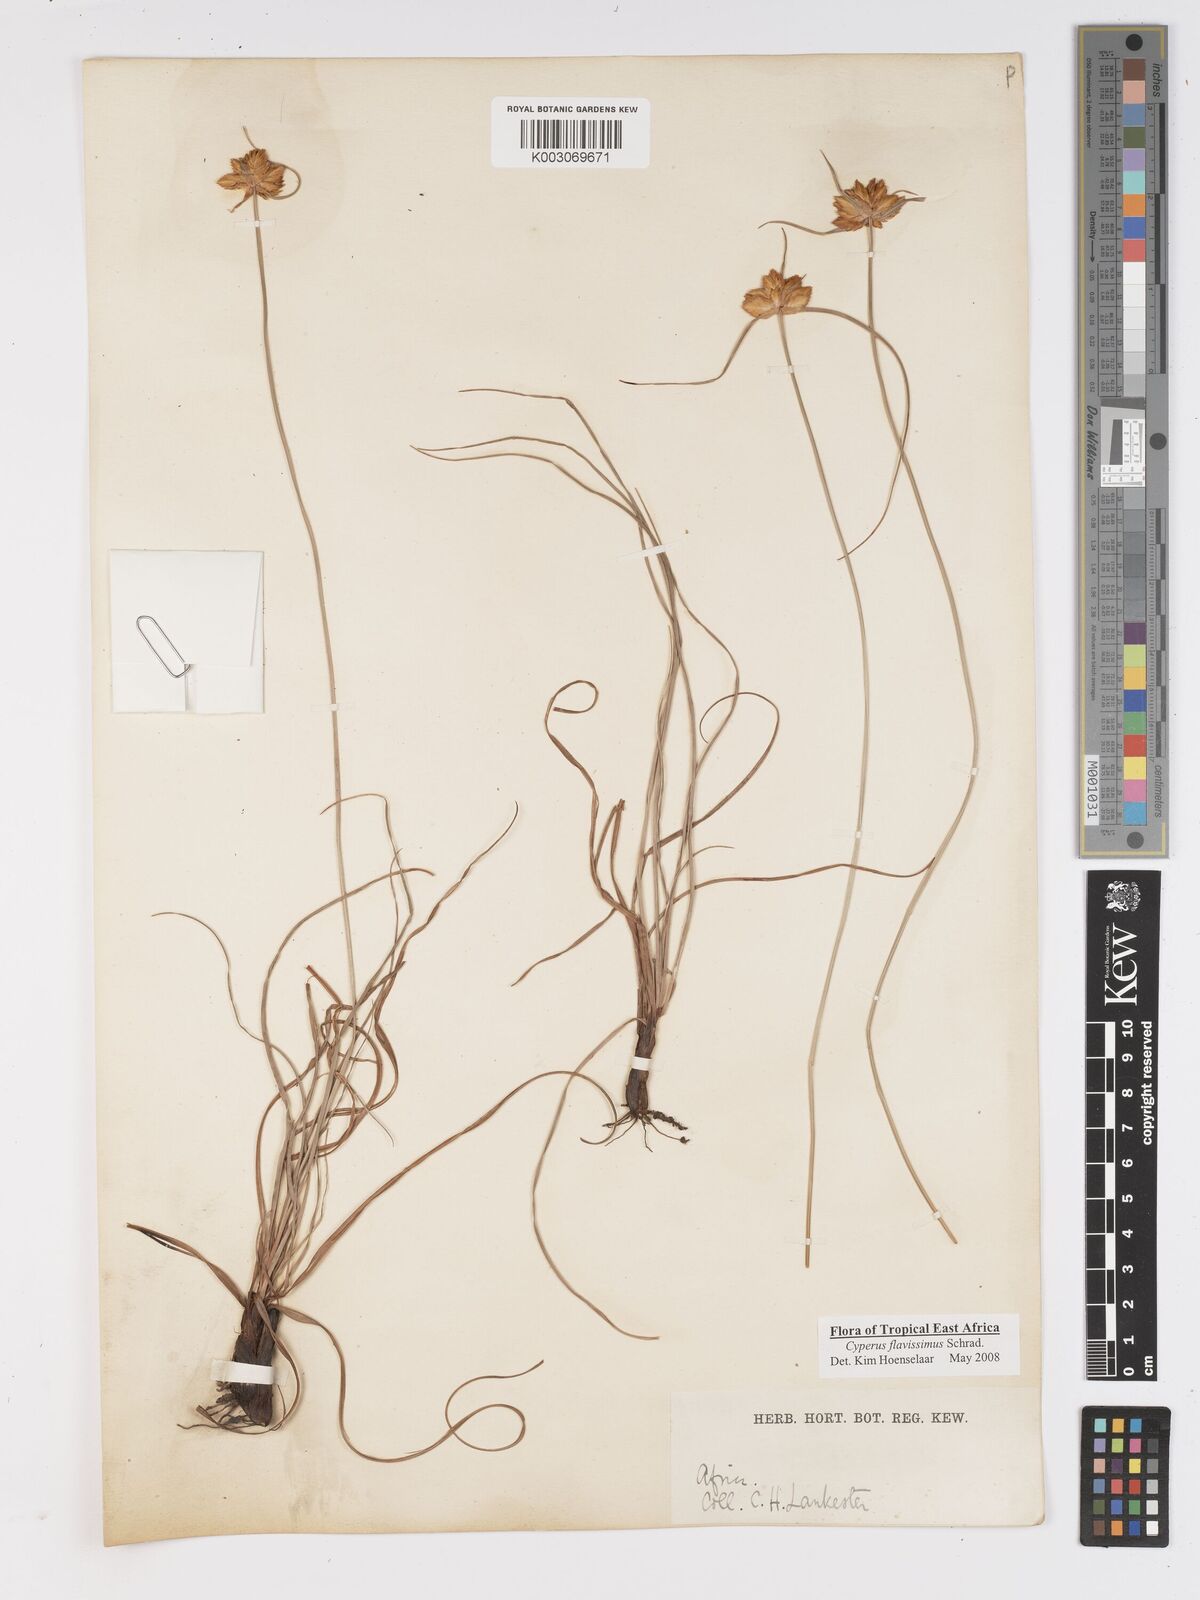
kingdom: Plantae
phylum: Tracheophyta
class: Liliopsida
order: Poales
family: Cyperaceae
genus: Cyperus
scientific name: Cyperus sphaerocephalus
